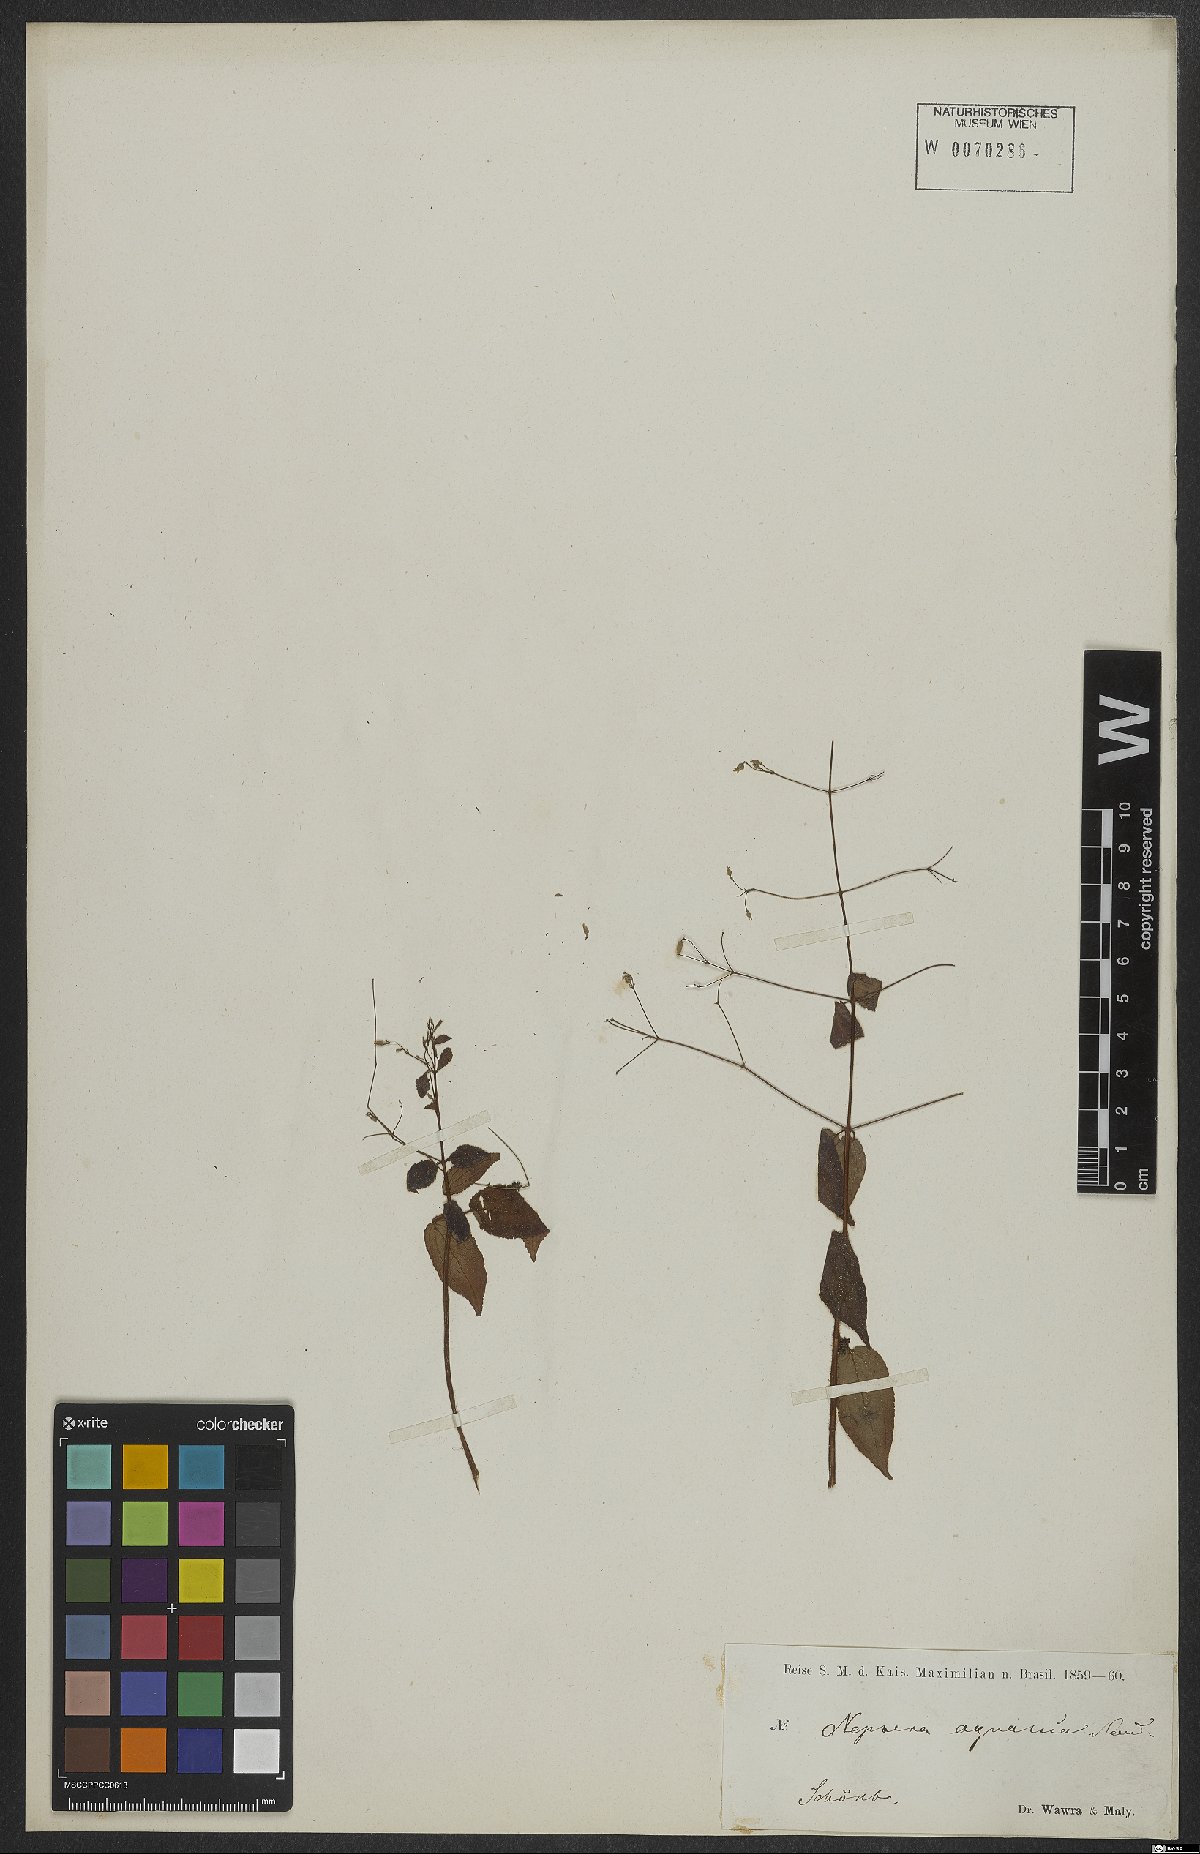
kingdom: Plantae
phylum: Tracheophyta
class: Magnoliopsida
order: Myrtales
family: Melastomataceae
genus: Nepsera
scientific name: Nepsera aquatica
